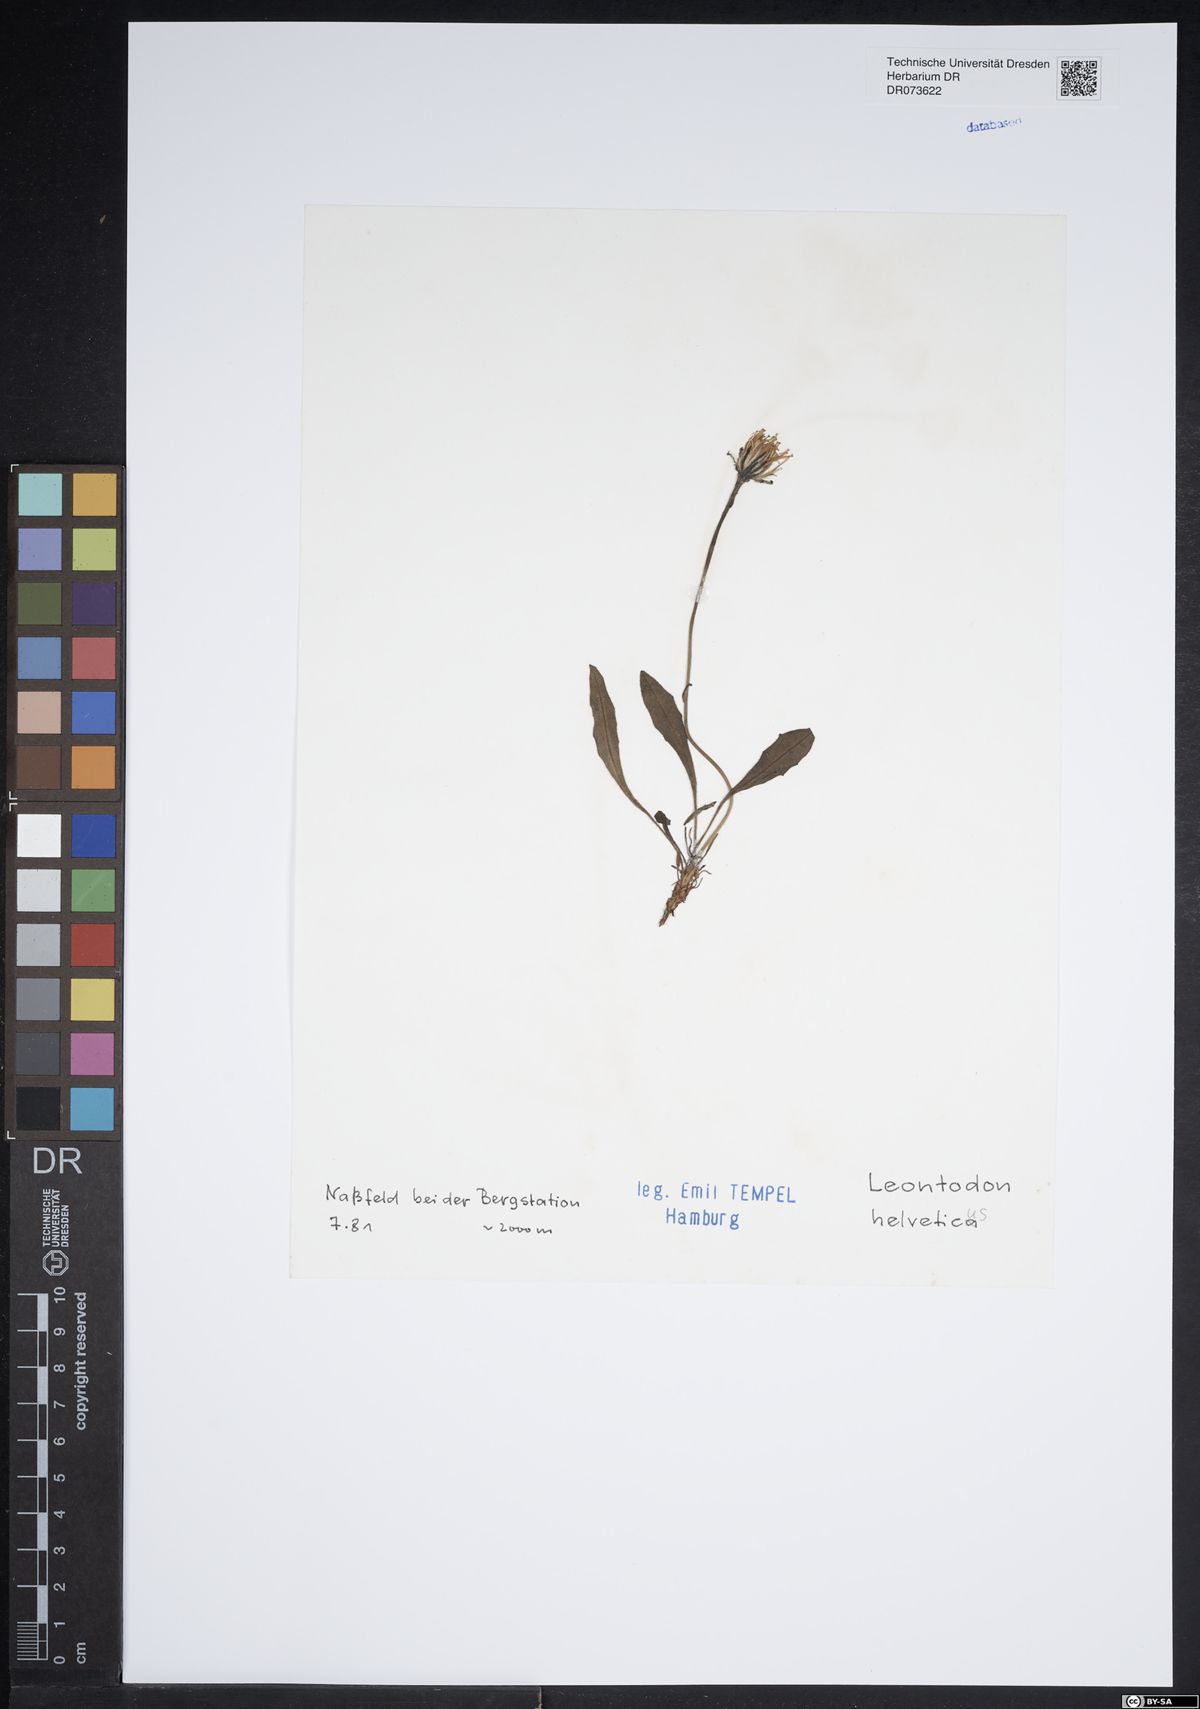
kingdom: Plantae
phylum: Tracheophyta
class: Magnoliopsida
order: Asterales
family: Asteraceae
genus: Scorzoneroides
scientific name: Scorzoneroides helvetica
